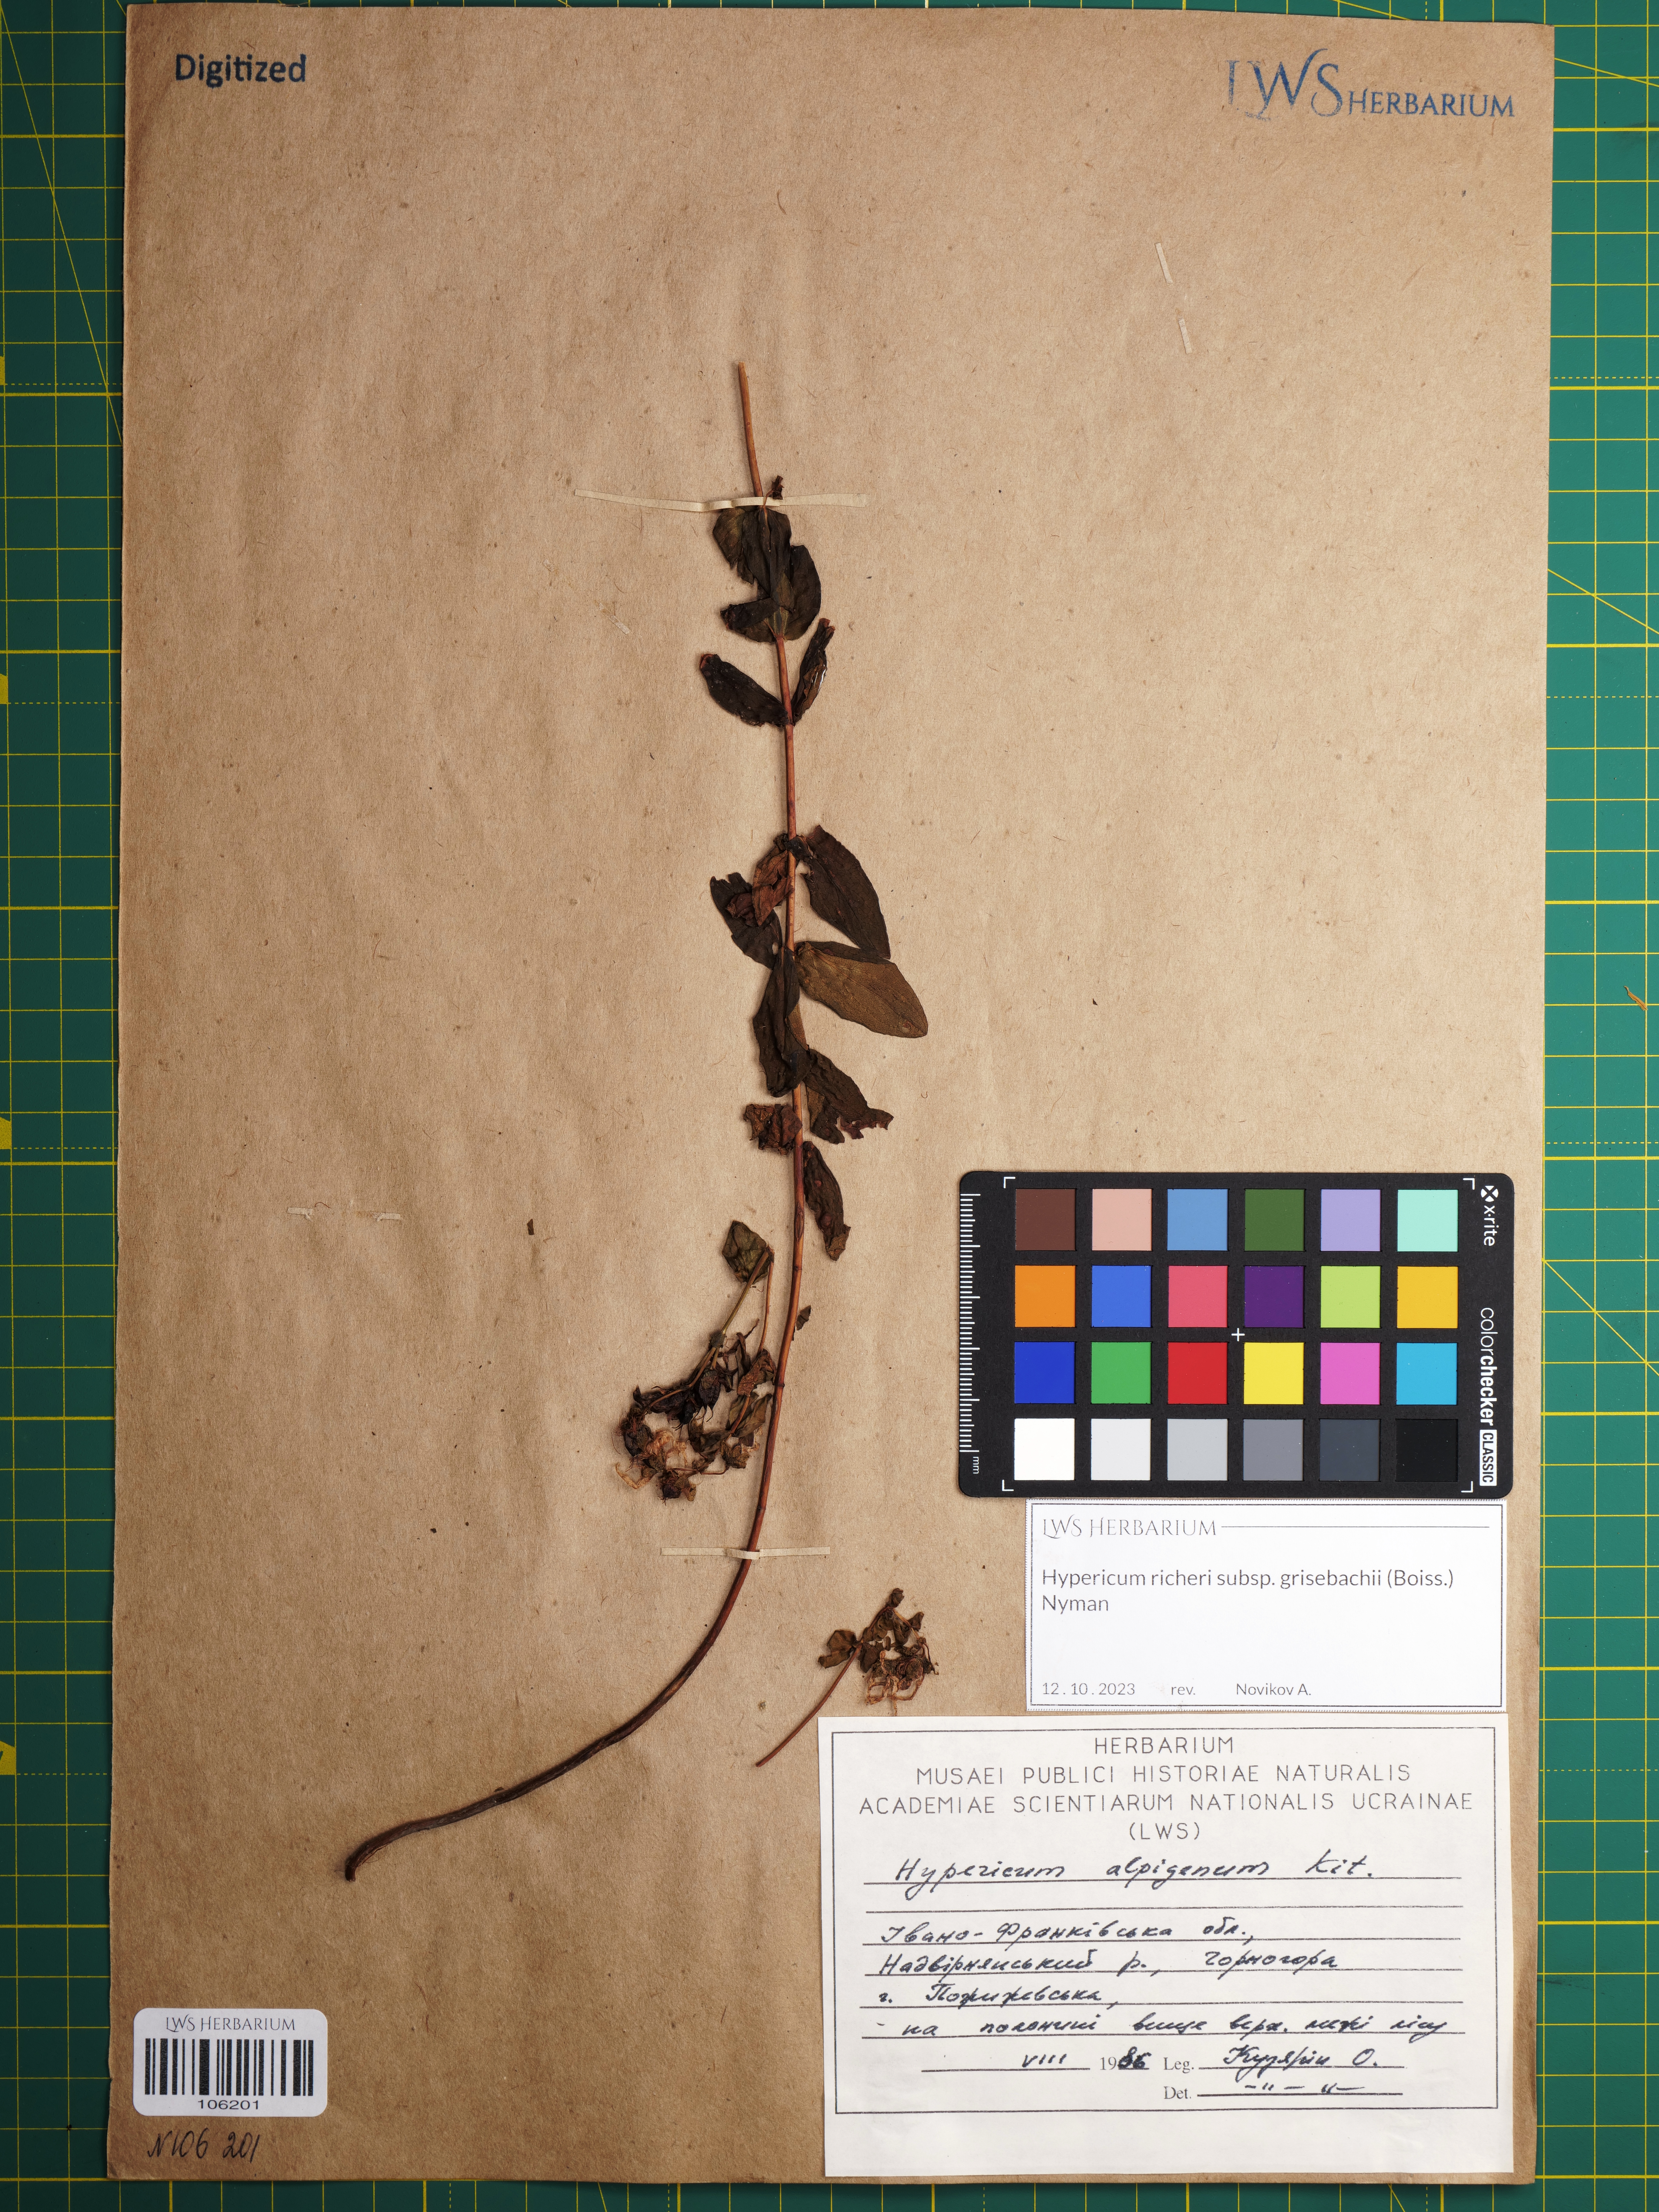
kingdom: Plantae
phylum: Tracheophyta
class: Magnoliopsida
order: Malpighiales
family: Hypericaceae
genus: Hypericum
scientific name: Hypericum richeri
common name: Alpine st john's-wort
